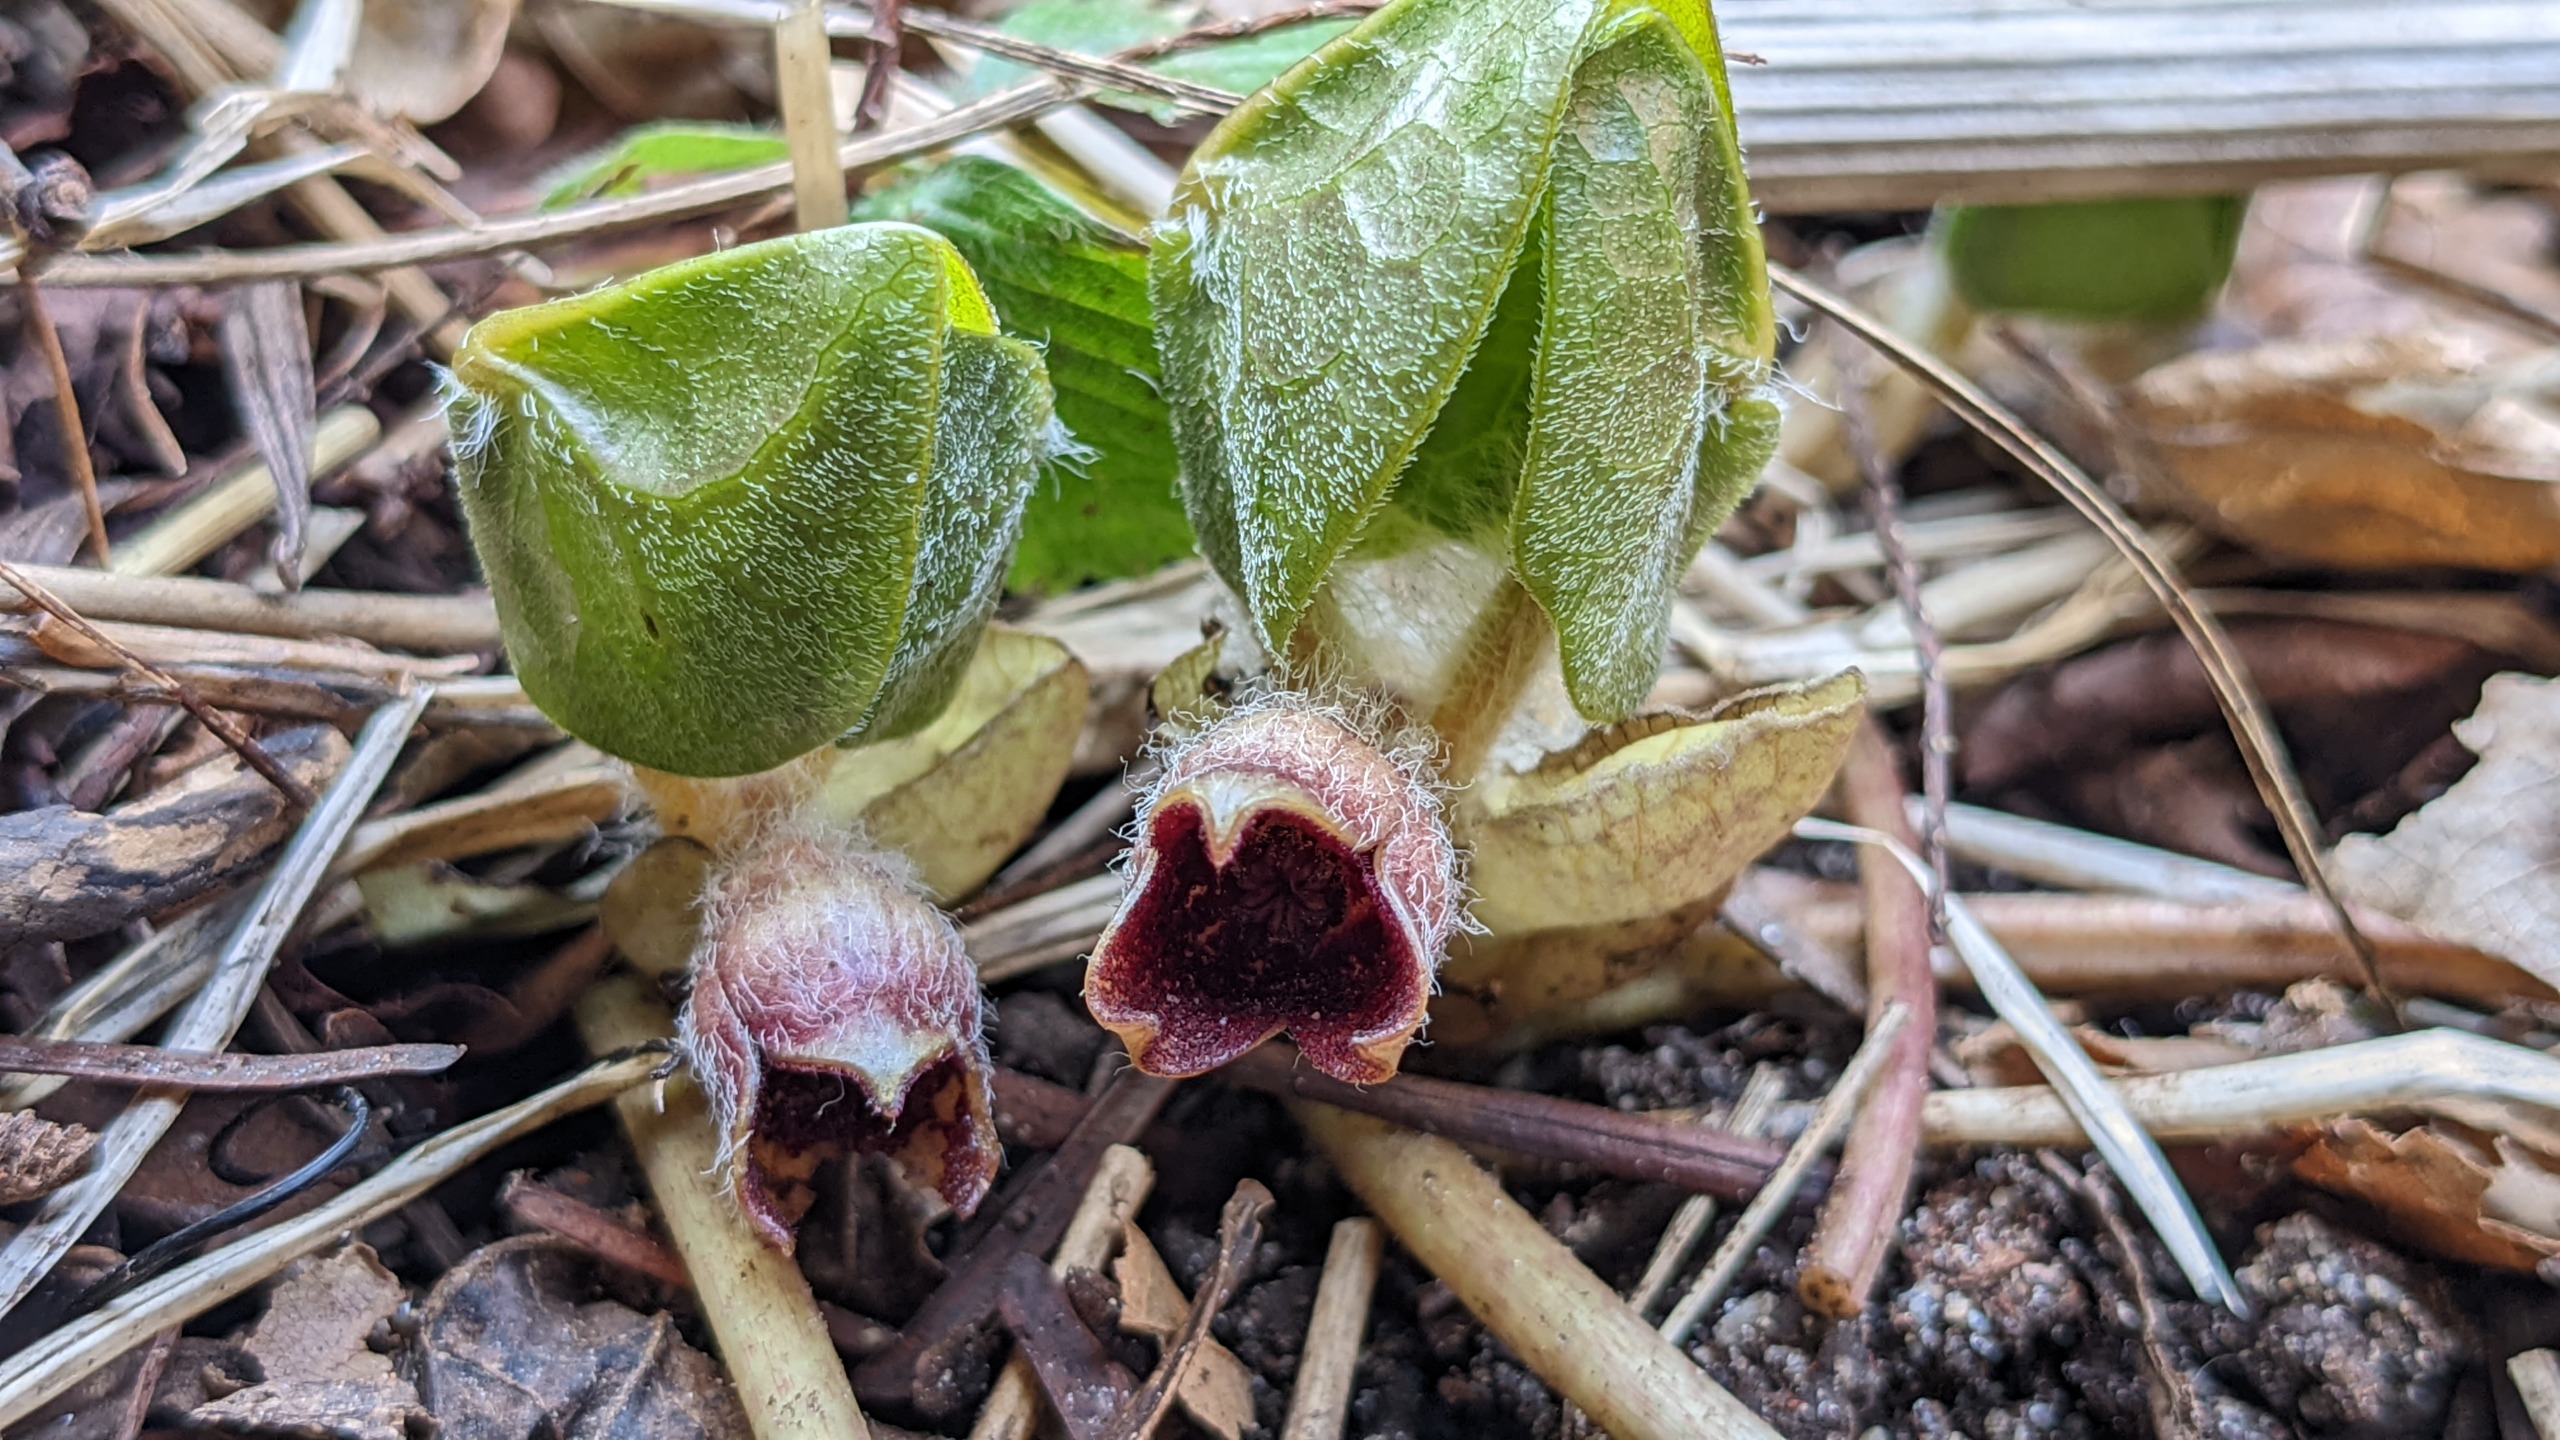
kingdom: Plantae
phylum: Tracheophyta
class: Magnoliopsida
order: Piperales
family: Aristolochiaceae
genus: Asarum
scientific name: Asarum europaeum
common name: Hasselurt
